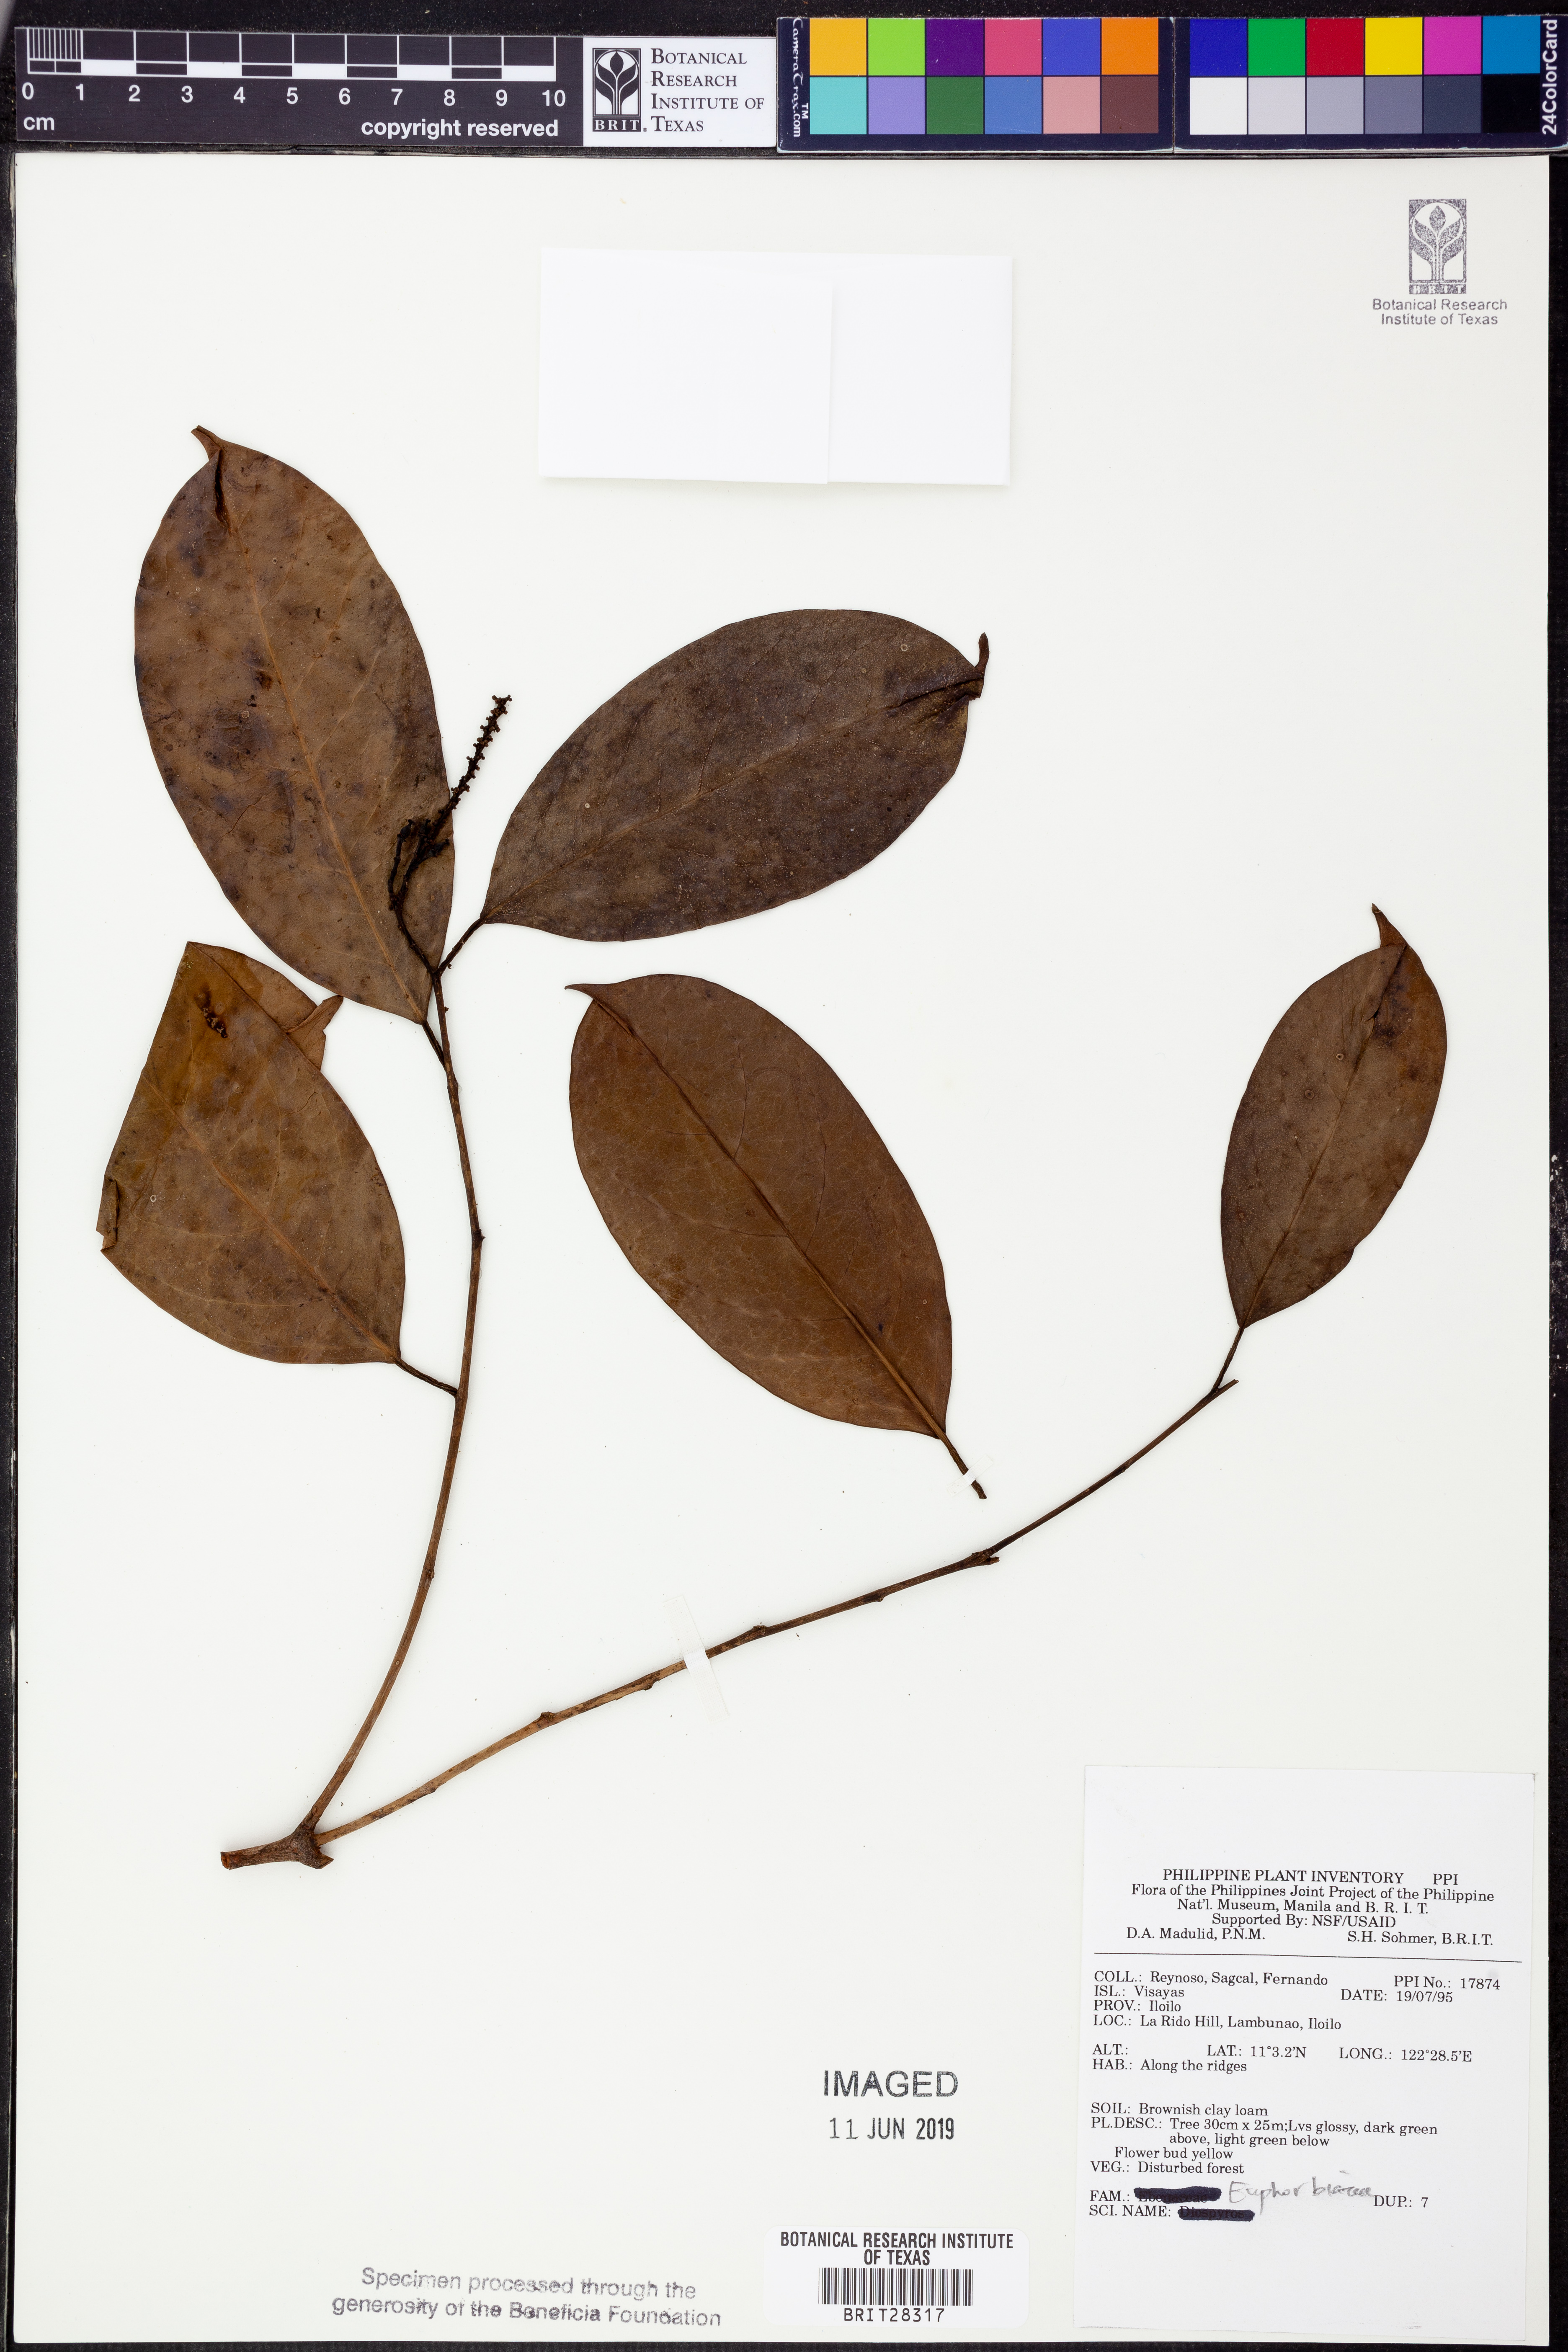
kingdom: Plantae
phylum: Tracheophyta
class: Magnoliopsida
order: Malpighiales
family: Euphorbiaceae
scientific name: Euphorbiaceae
